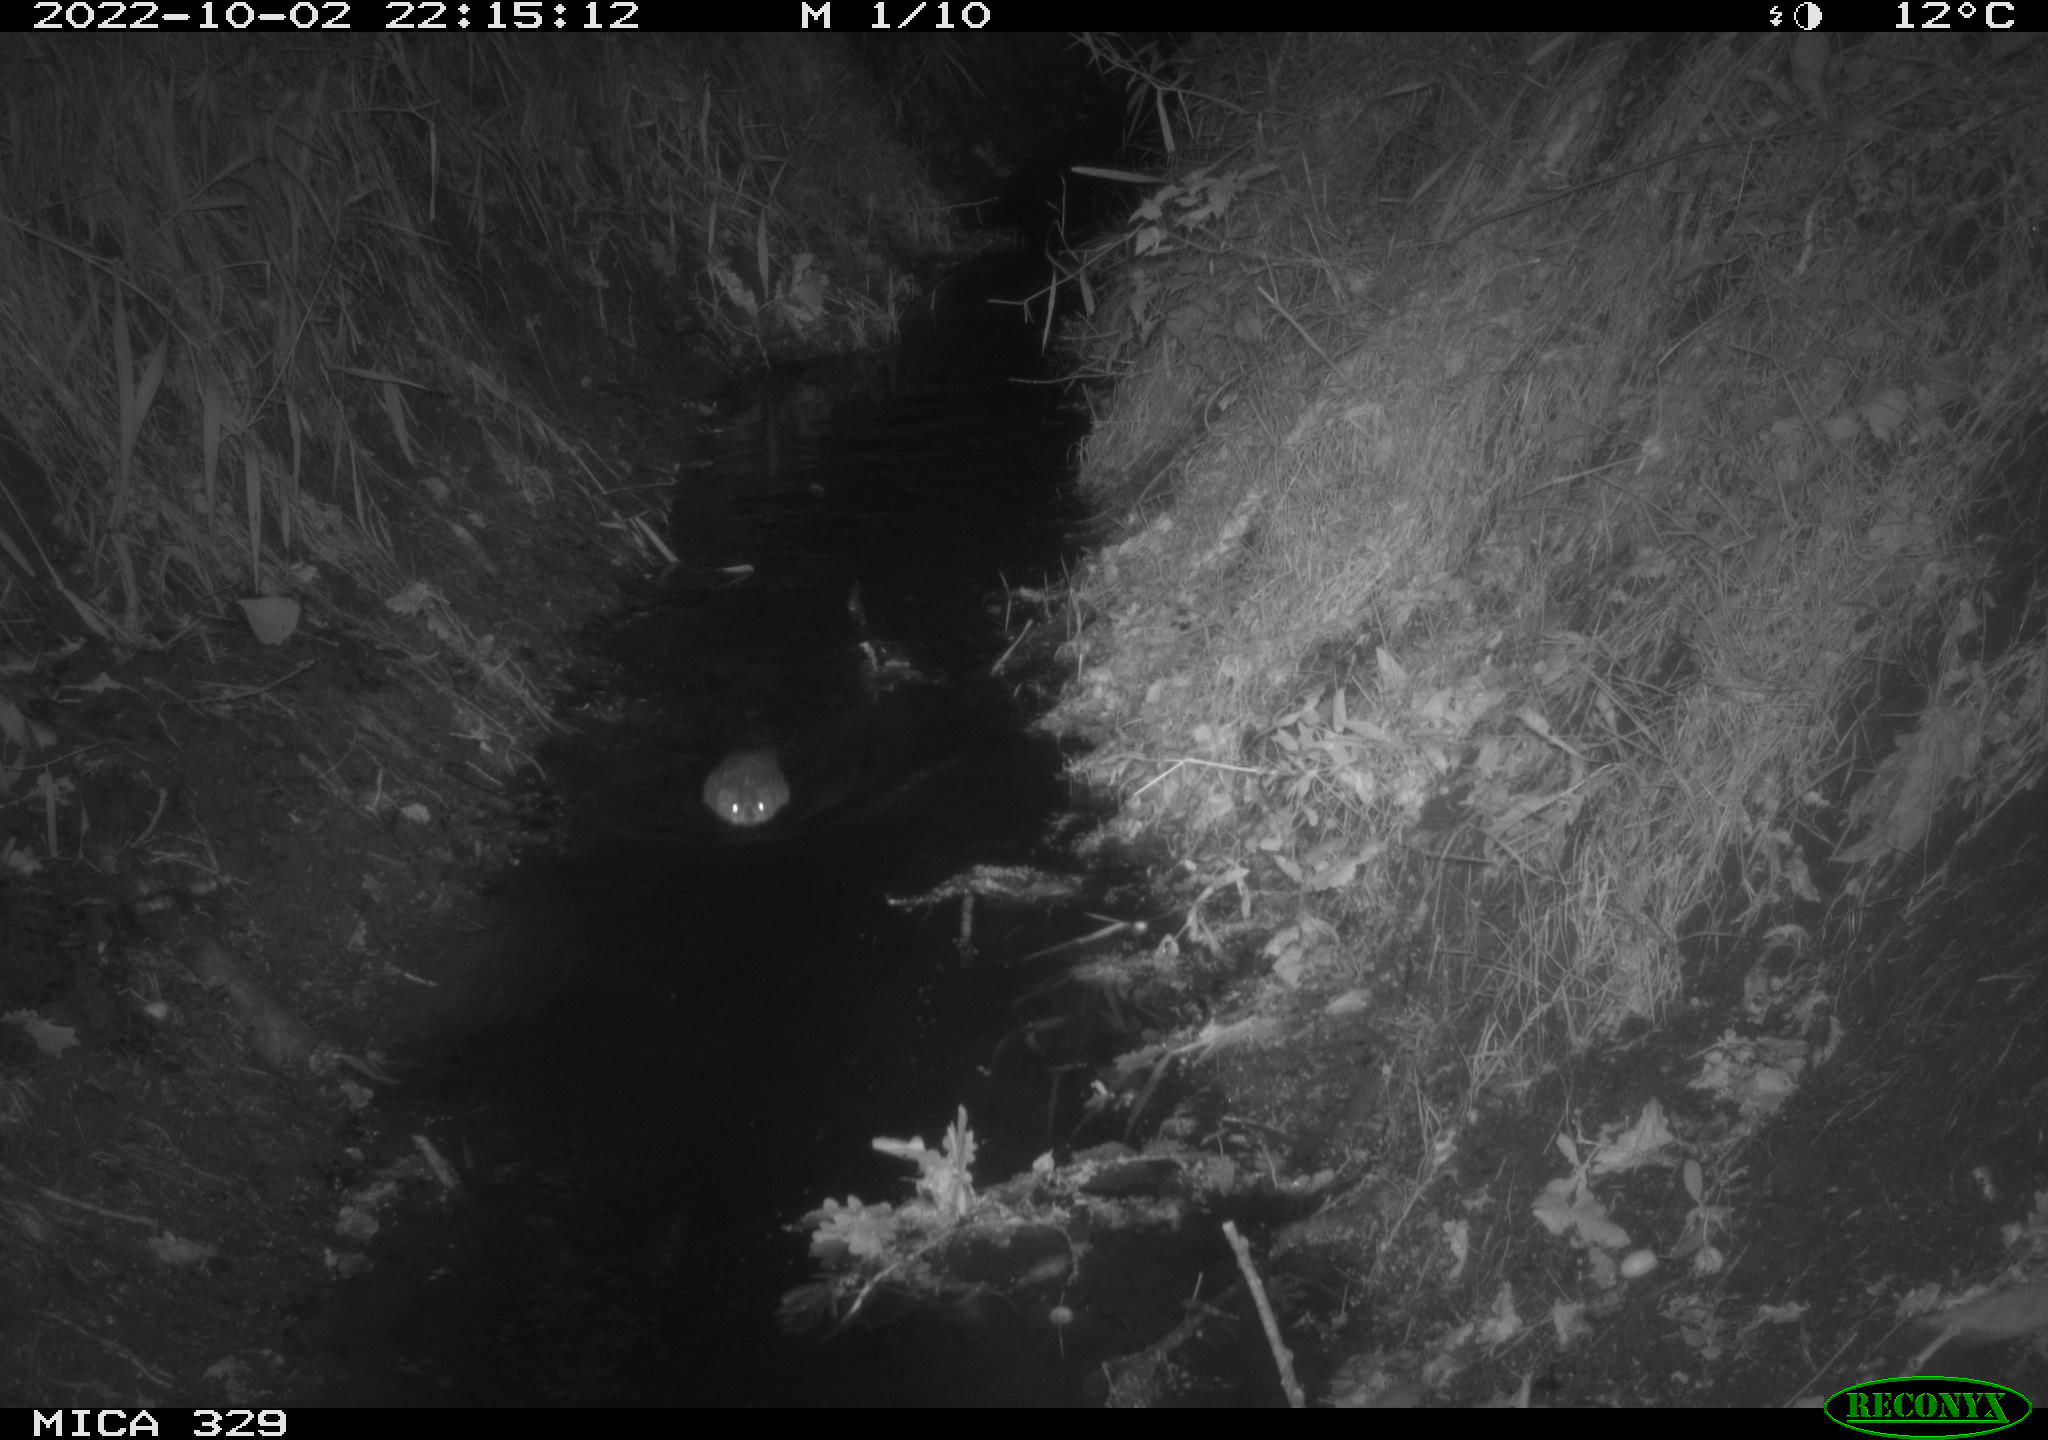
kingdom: Animalia
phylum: Chordata
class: Mammalia
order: Rodentia
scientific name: Rodentia
